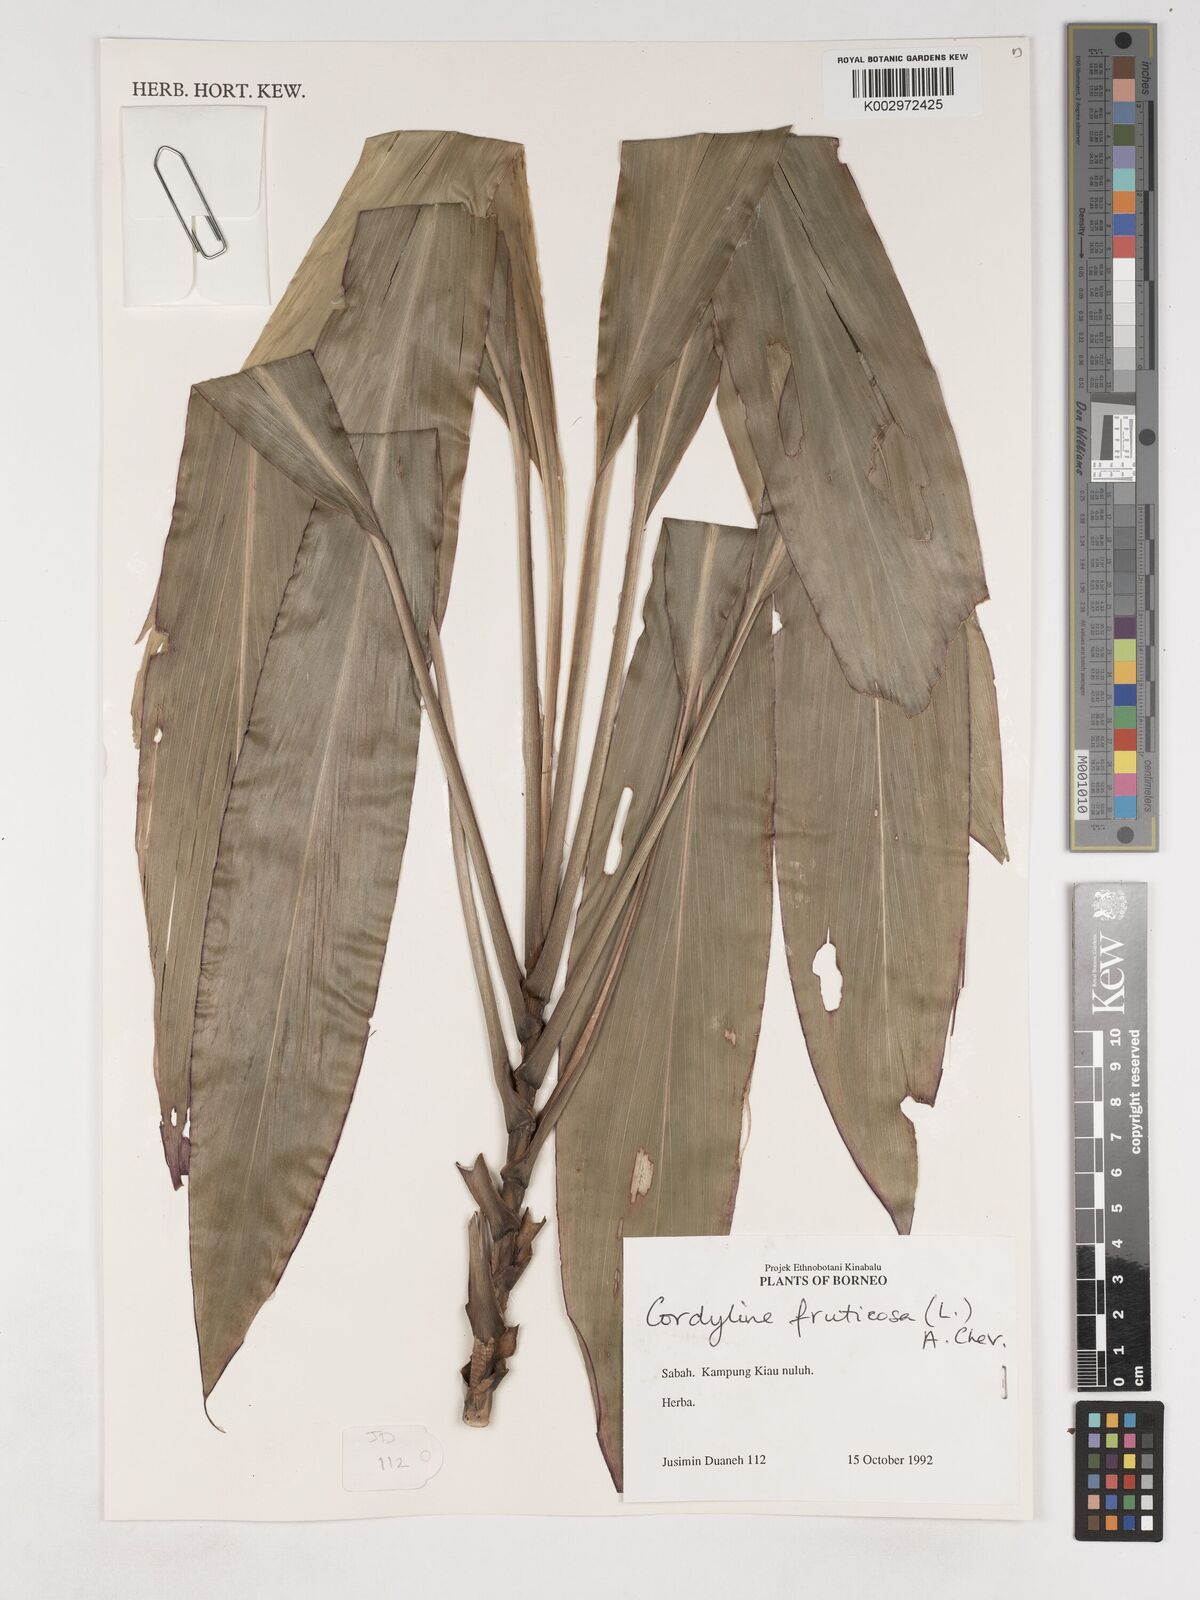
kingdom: Plantae
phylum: Tracheophyta
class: Liliopsida
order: Asparagales
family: Asparagaceae
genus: Cordyline
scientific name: Cordyline fruticosa
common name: Good-luck-plant
